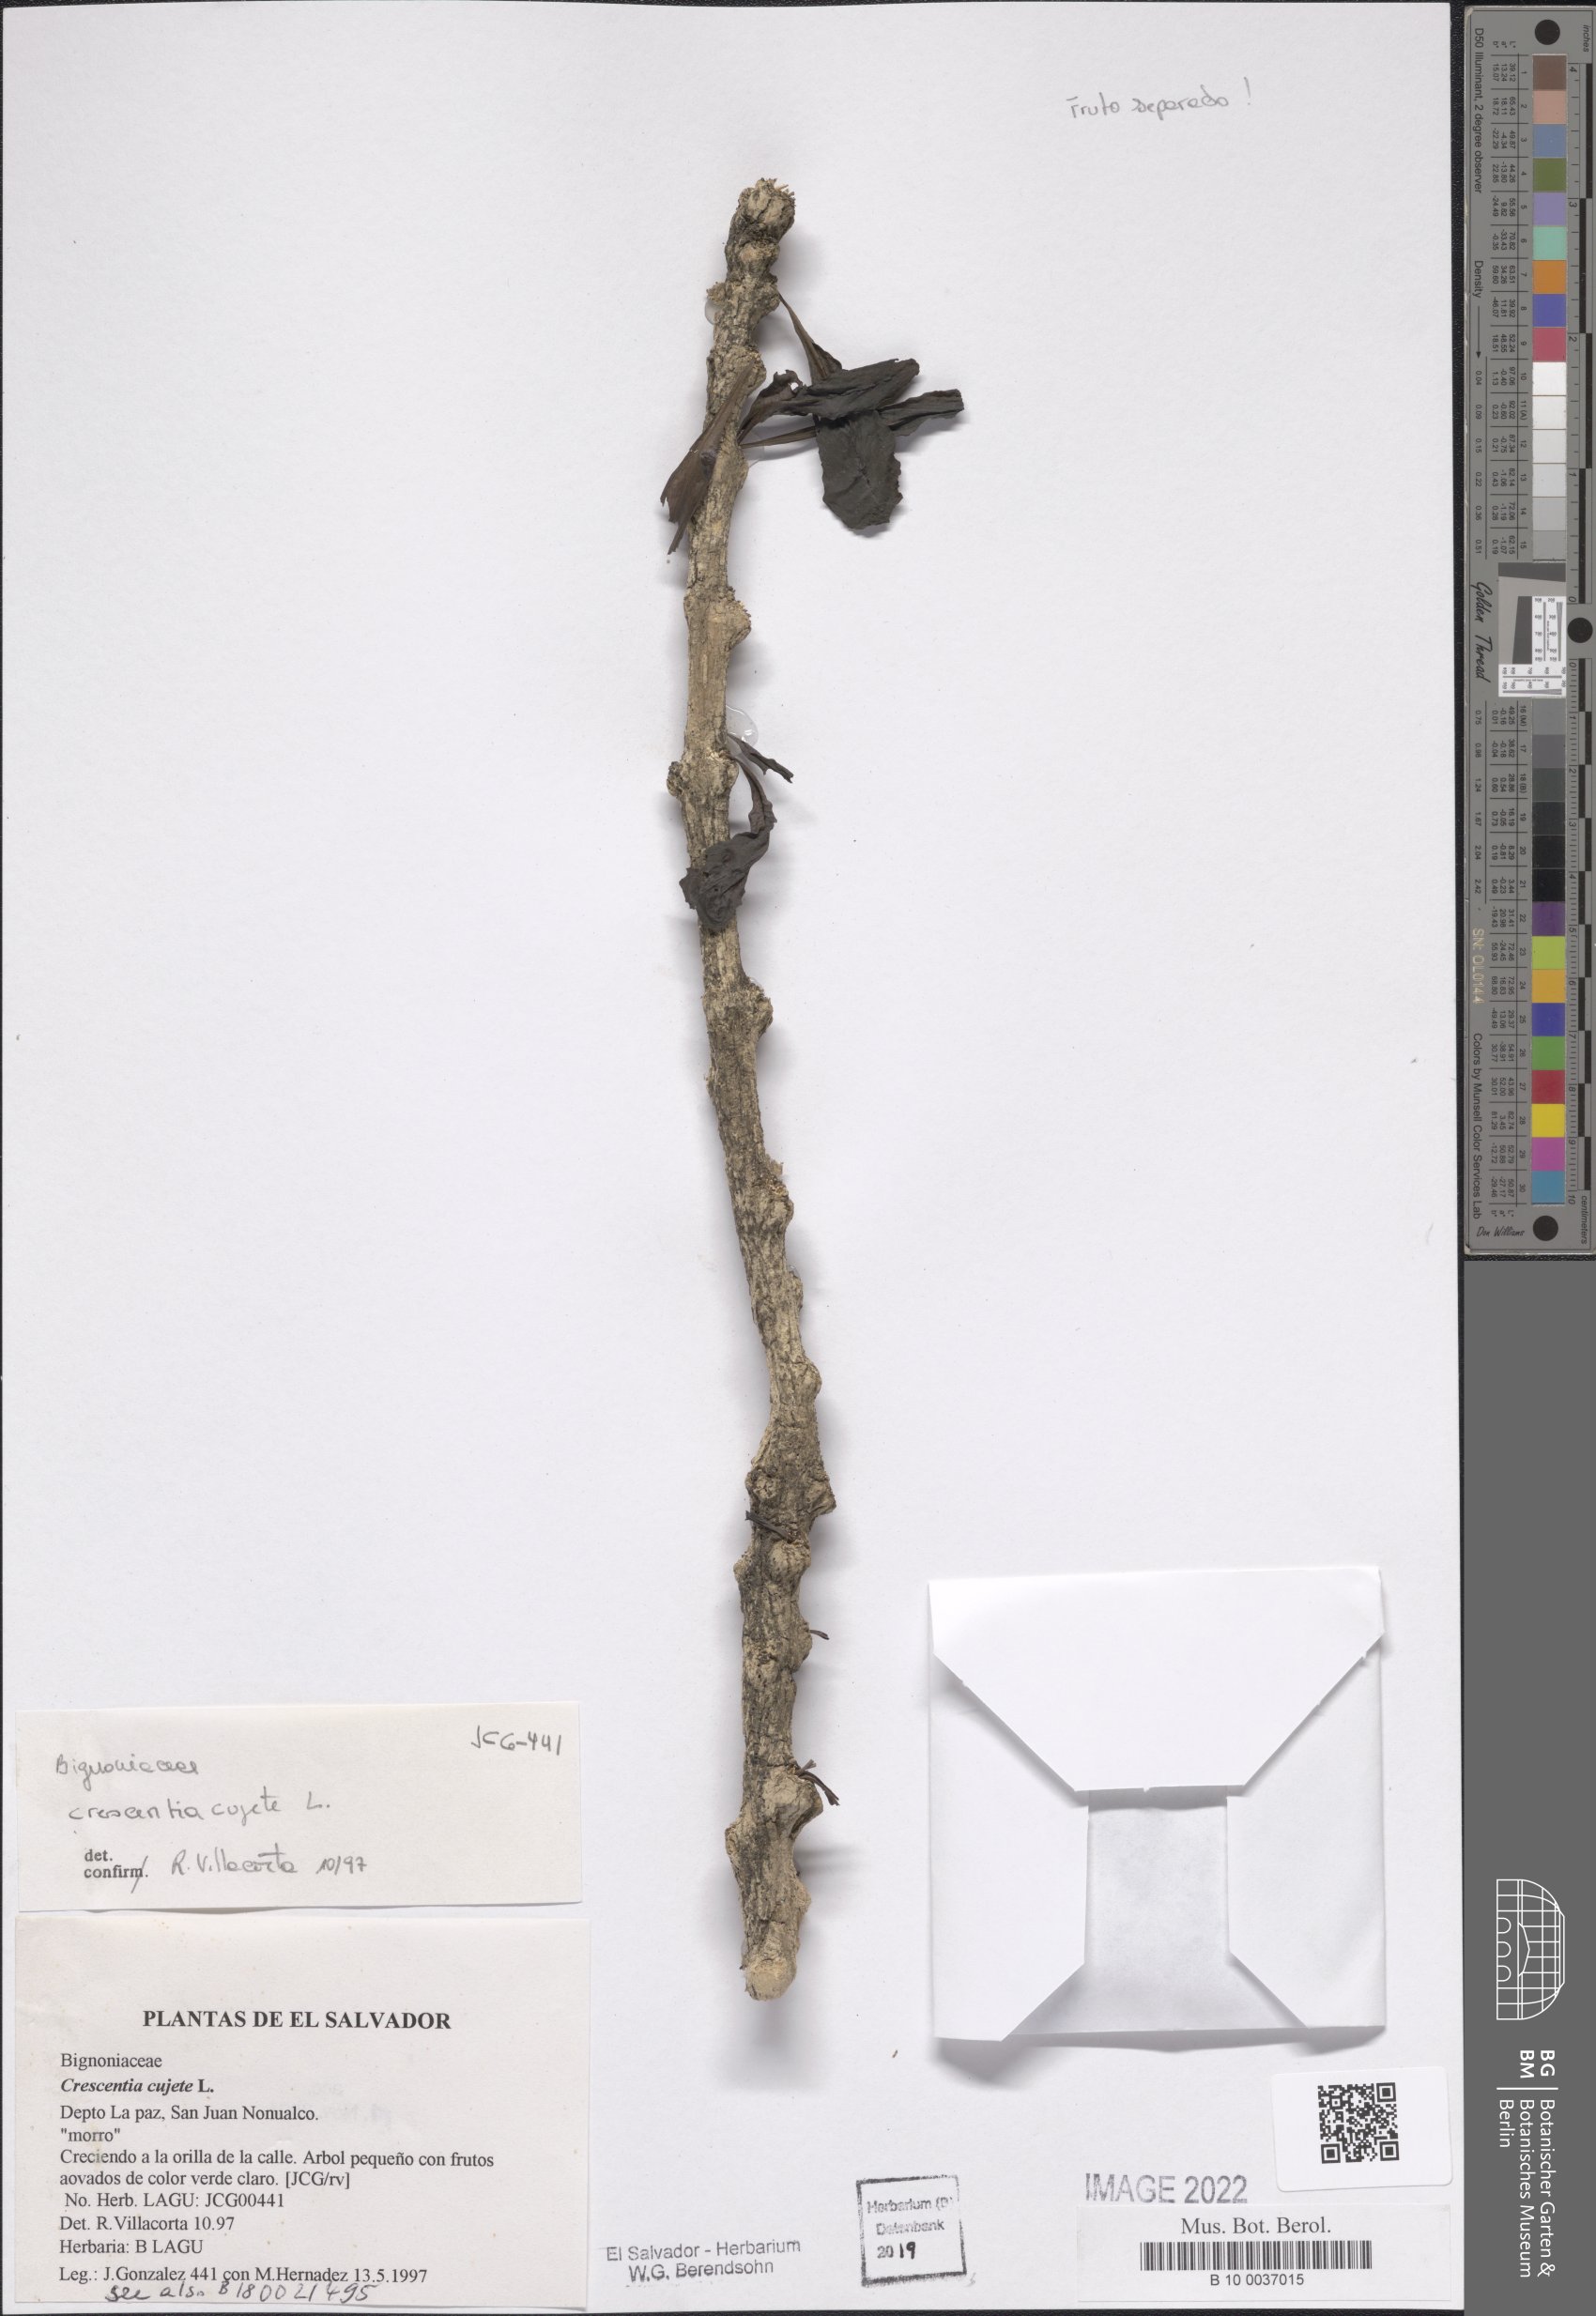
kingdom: Plantae
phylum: Tracheophyta
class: Magnoliopsida
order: Lamiales
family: Bignoniaceae
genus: Crescentia
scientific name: Crescentia cujete
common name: Calabash
